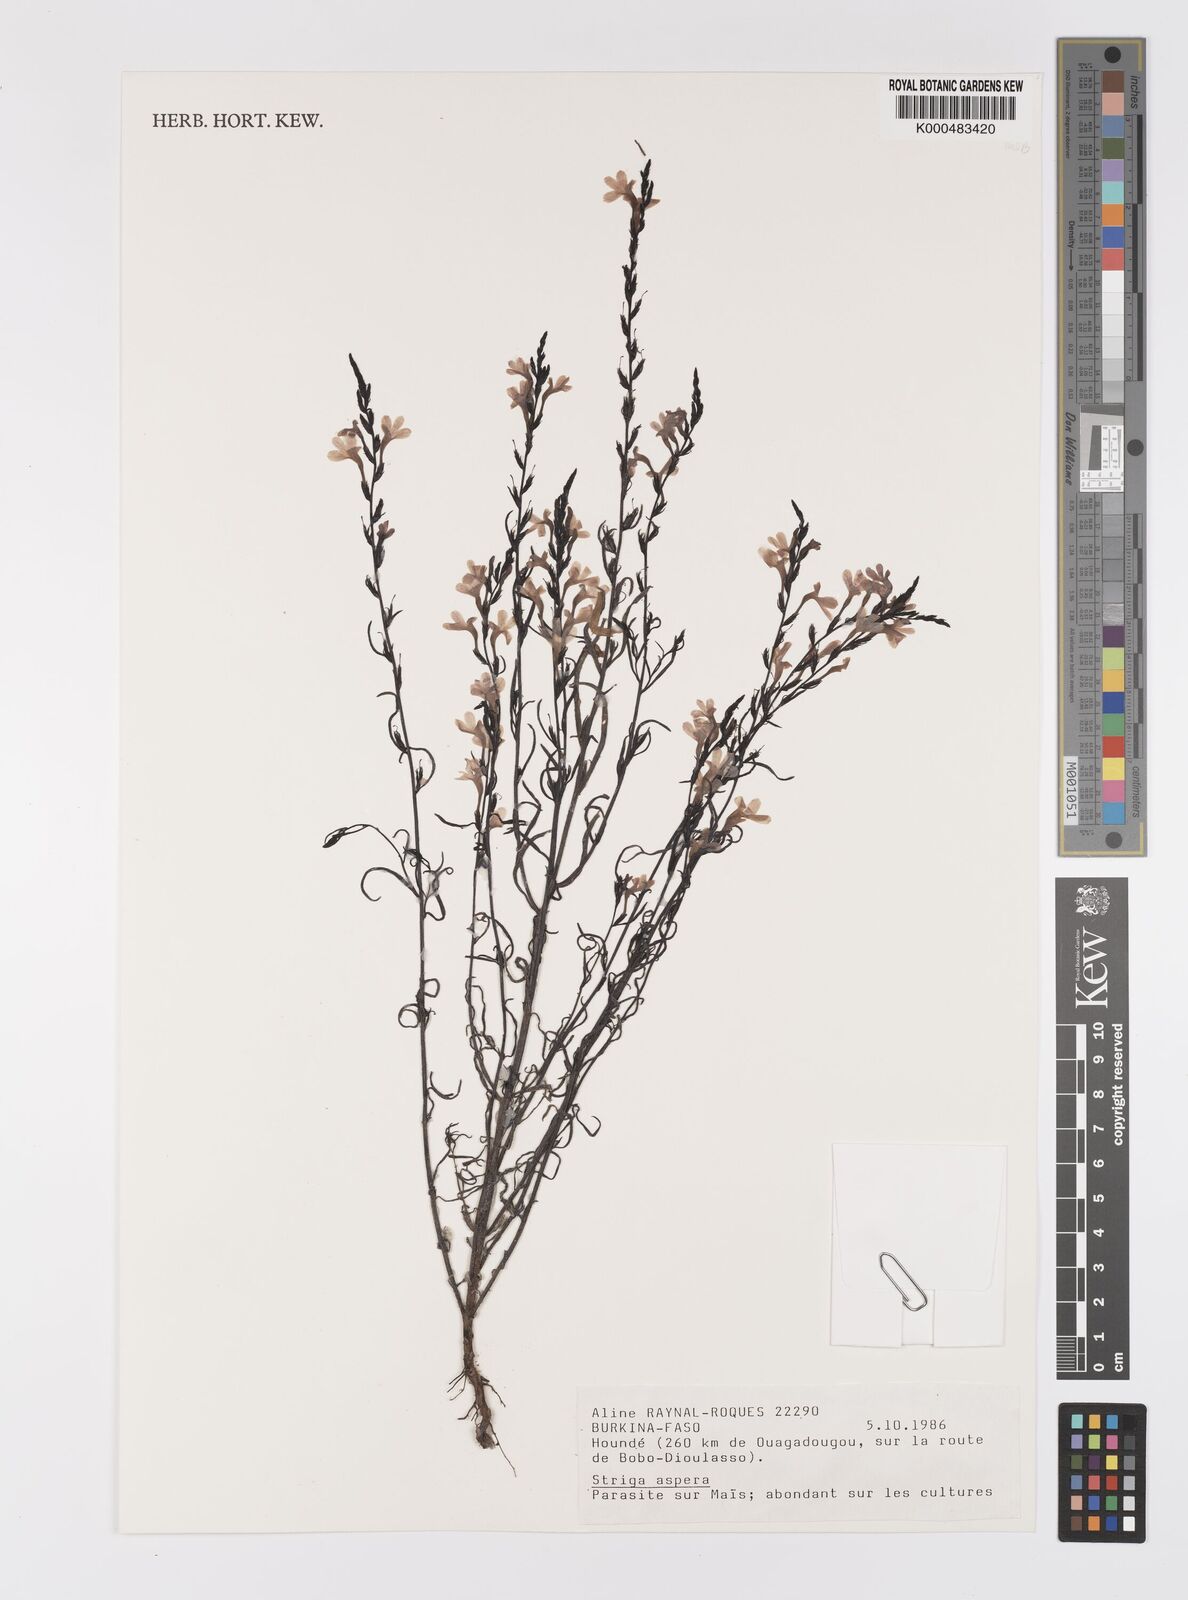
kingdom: Plantae
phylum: Tracheophyta
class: Magnoliopsida
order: Lamiales
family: Orobanchaceae
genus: Striga
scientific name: Striga aspera
